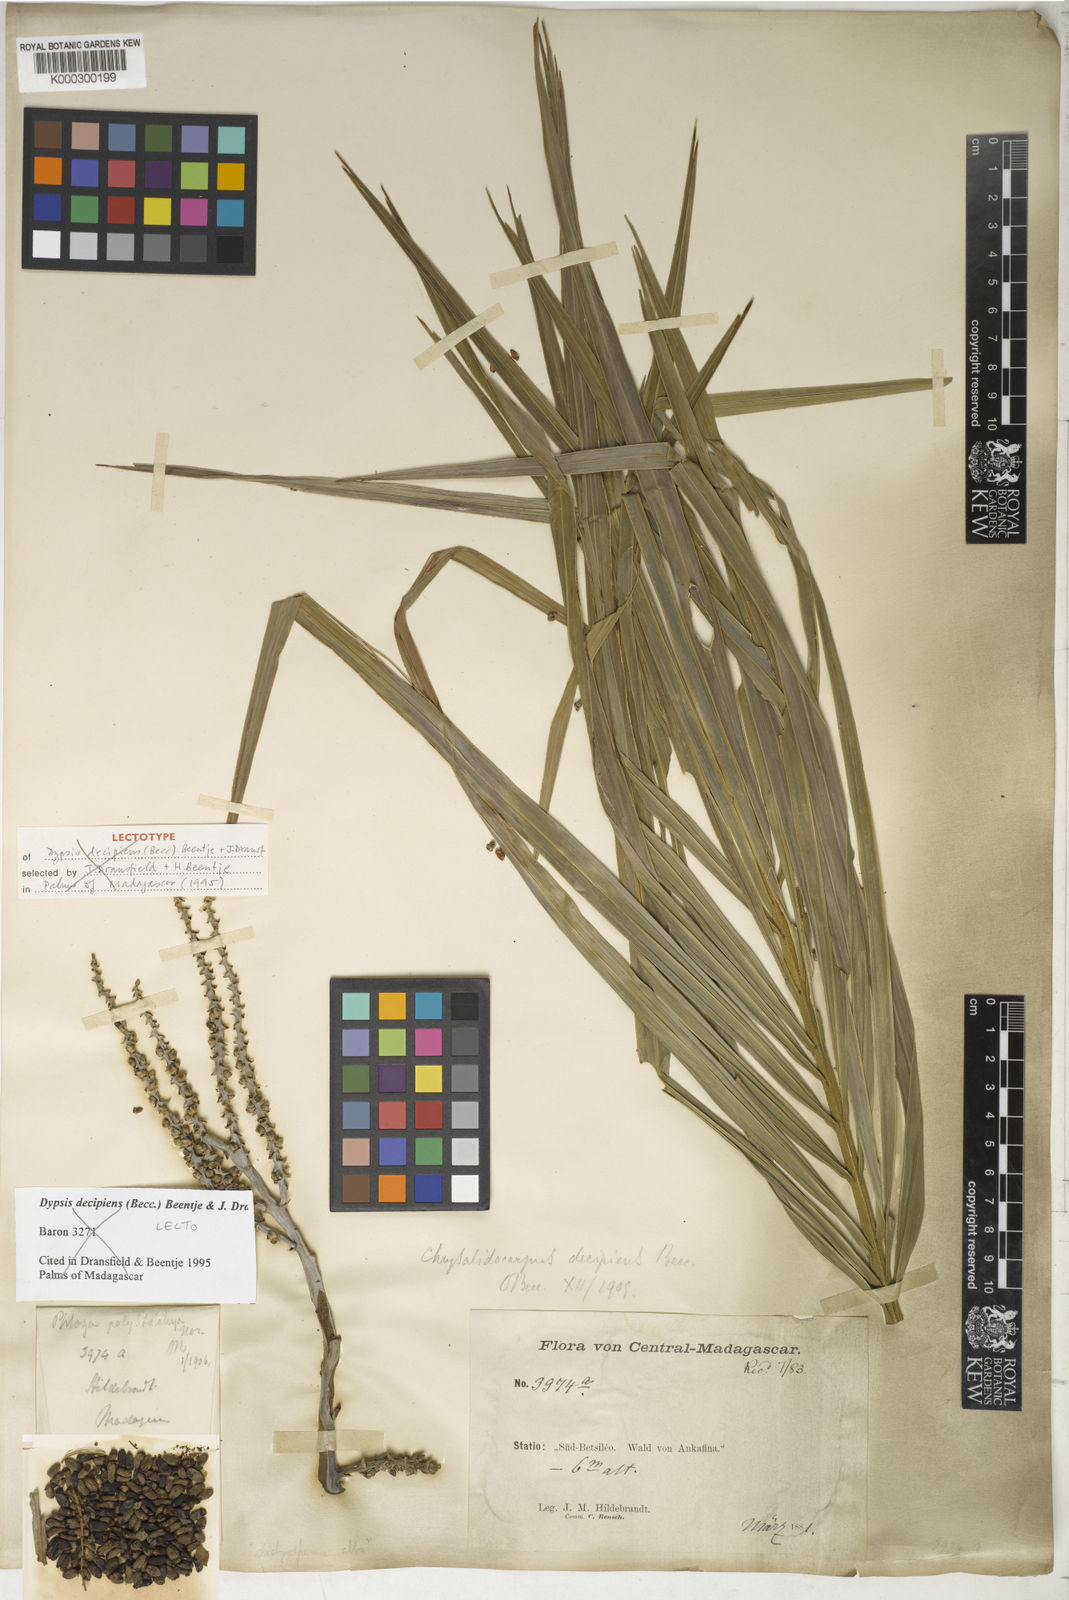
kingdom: Plantae
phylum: Tracheophyta
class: Liliopsida
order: Arecales
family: Arecaceae
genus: Dypsis
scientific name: Dypsis decipiens
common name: Manambe palm
